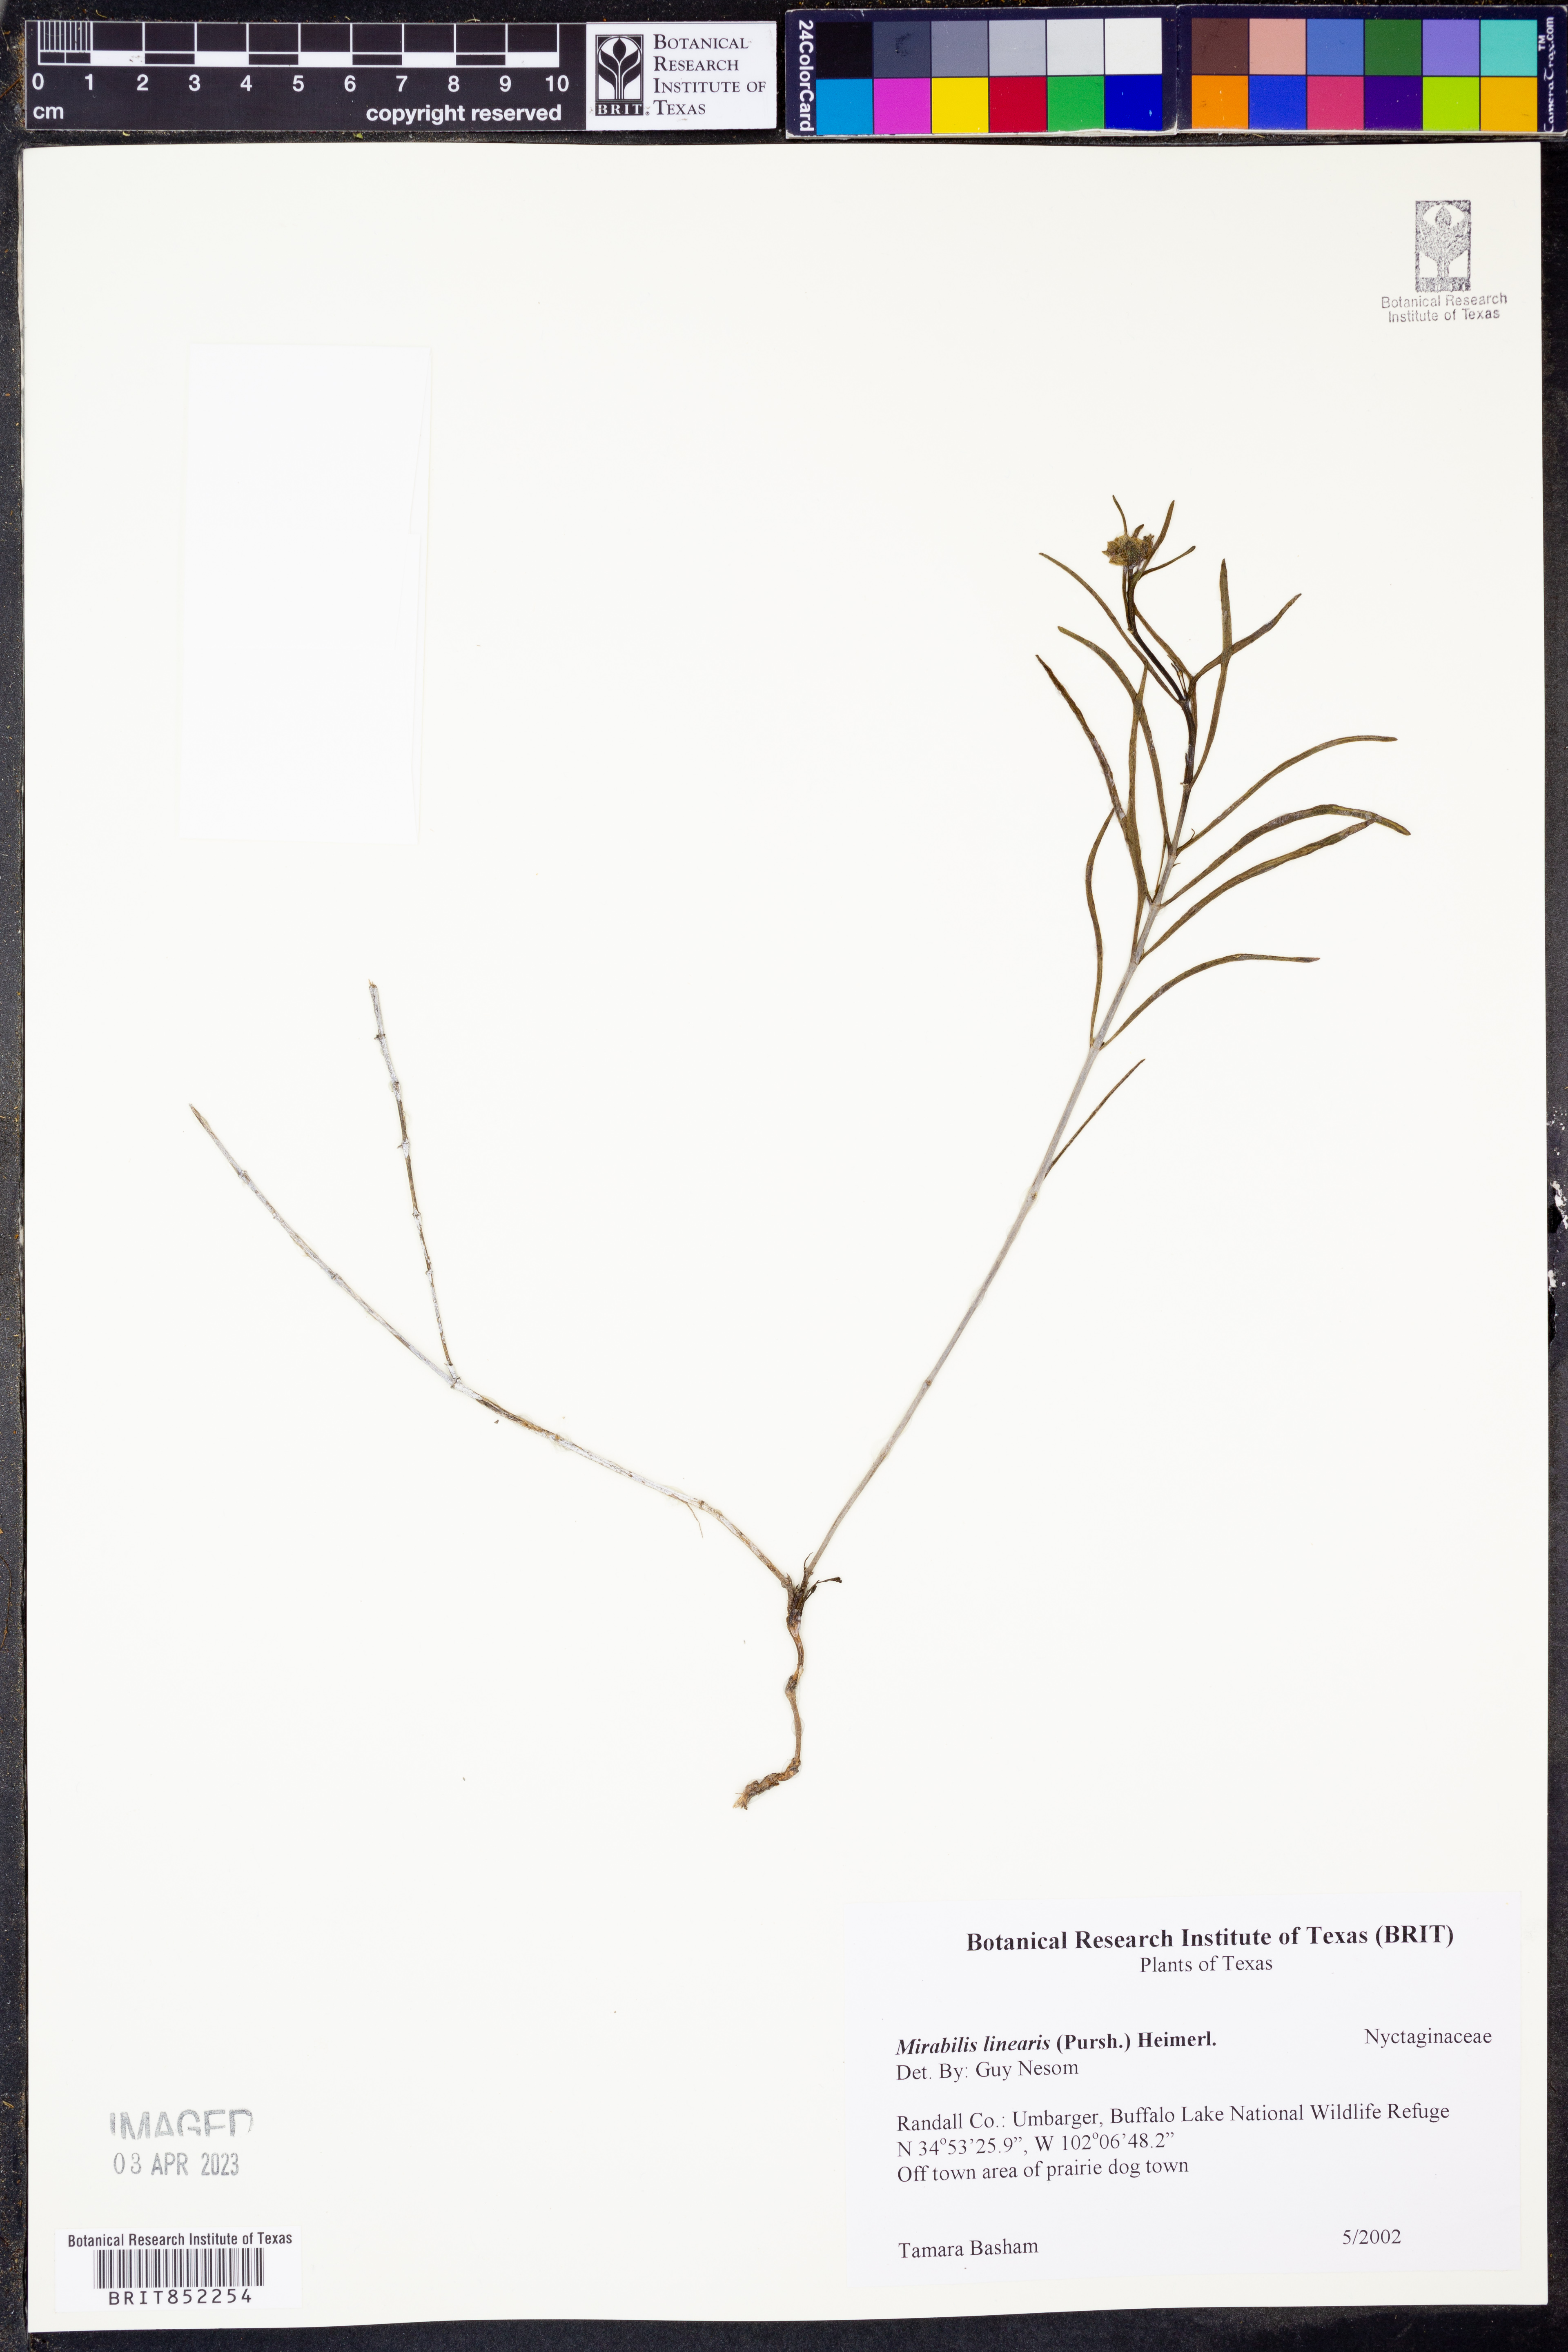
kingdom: Plantae
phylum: Tracheophyta
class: Magnoliopsida
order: Caryophyllales
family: Nyctaginaceae
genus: Mirabilis
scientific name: Mirabilis linearis
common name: Linear-leaved four-o'clock
